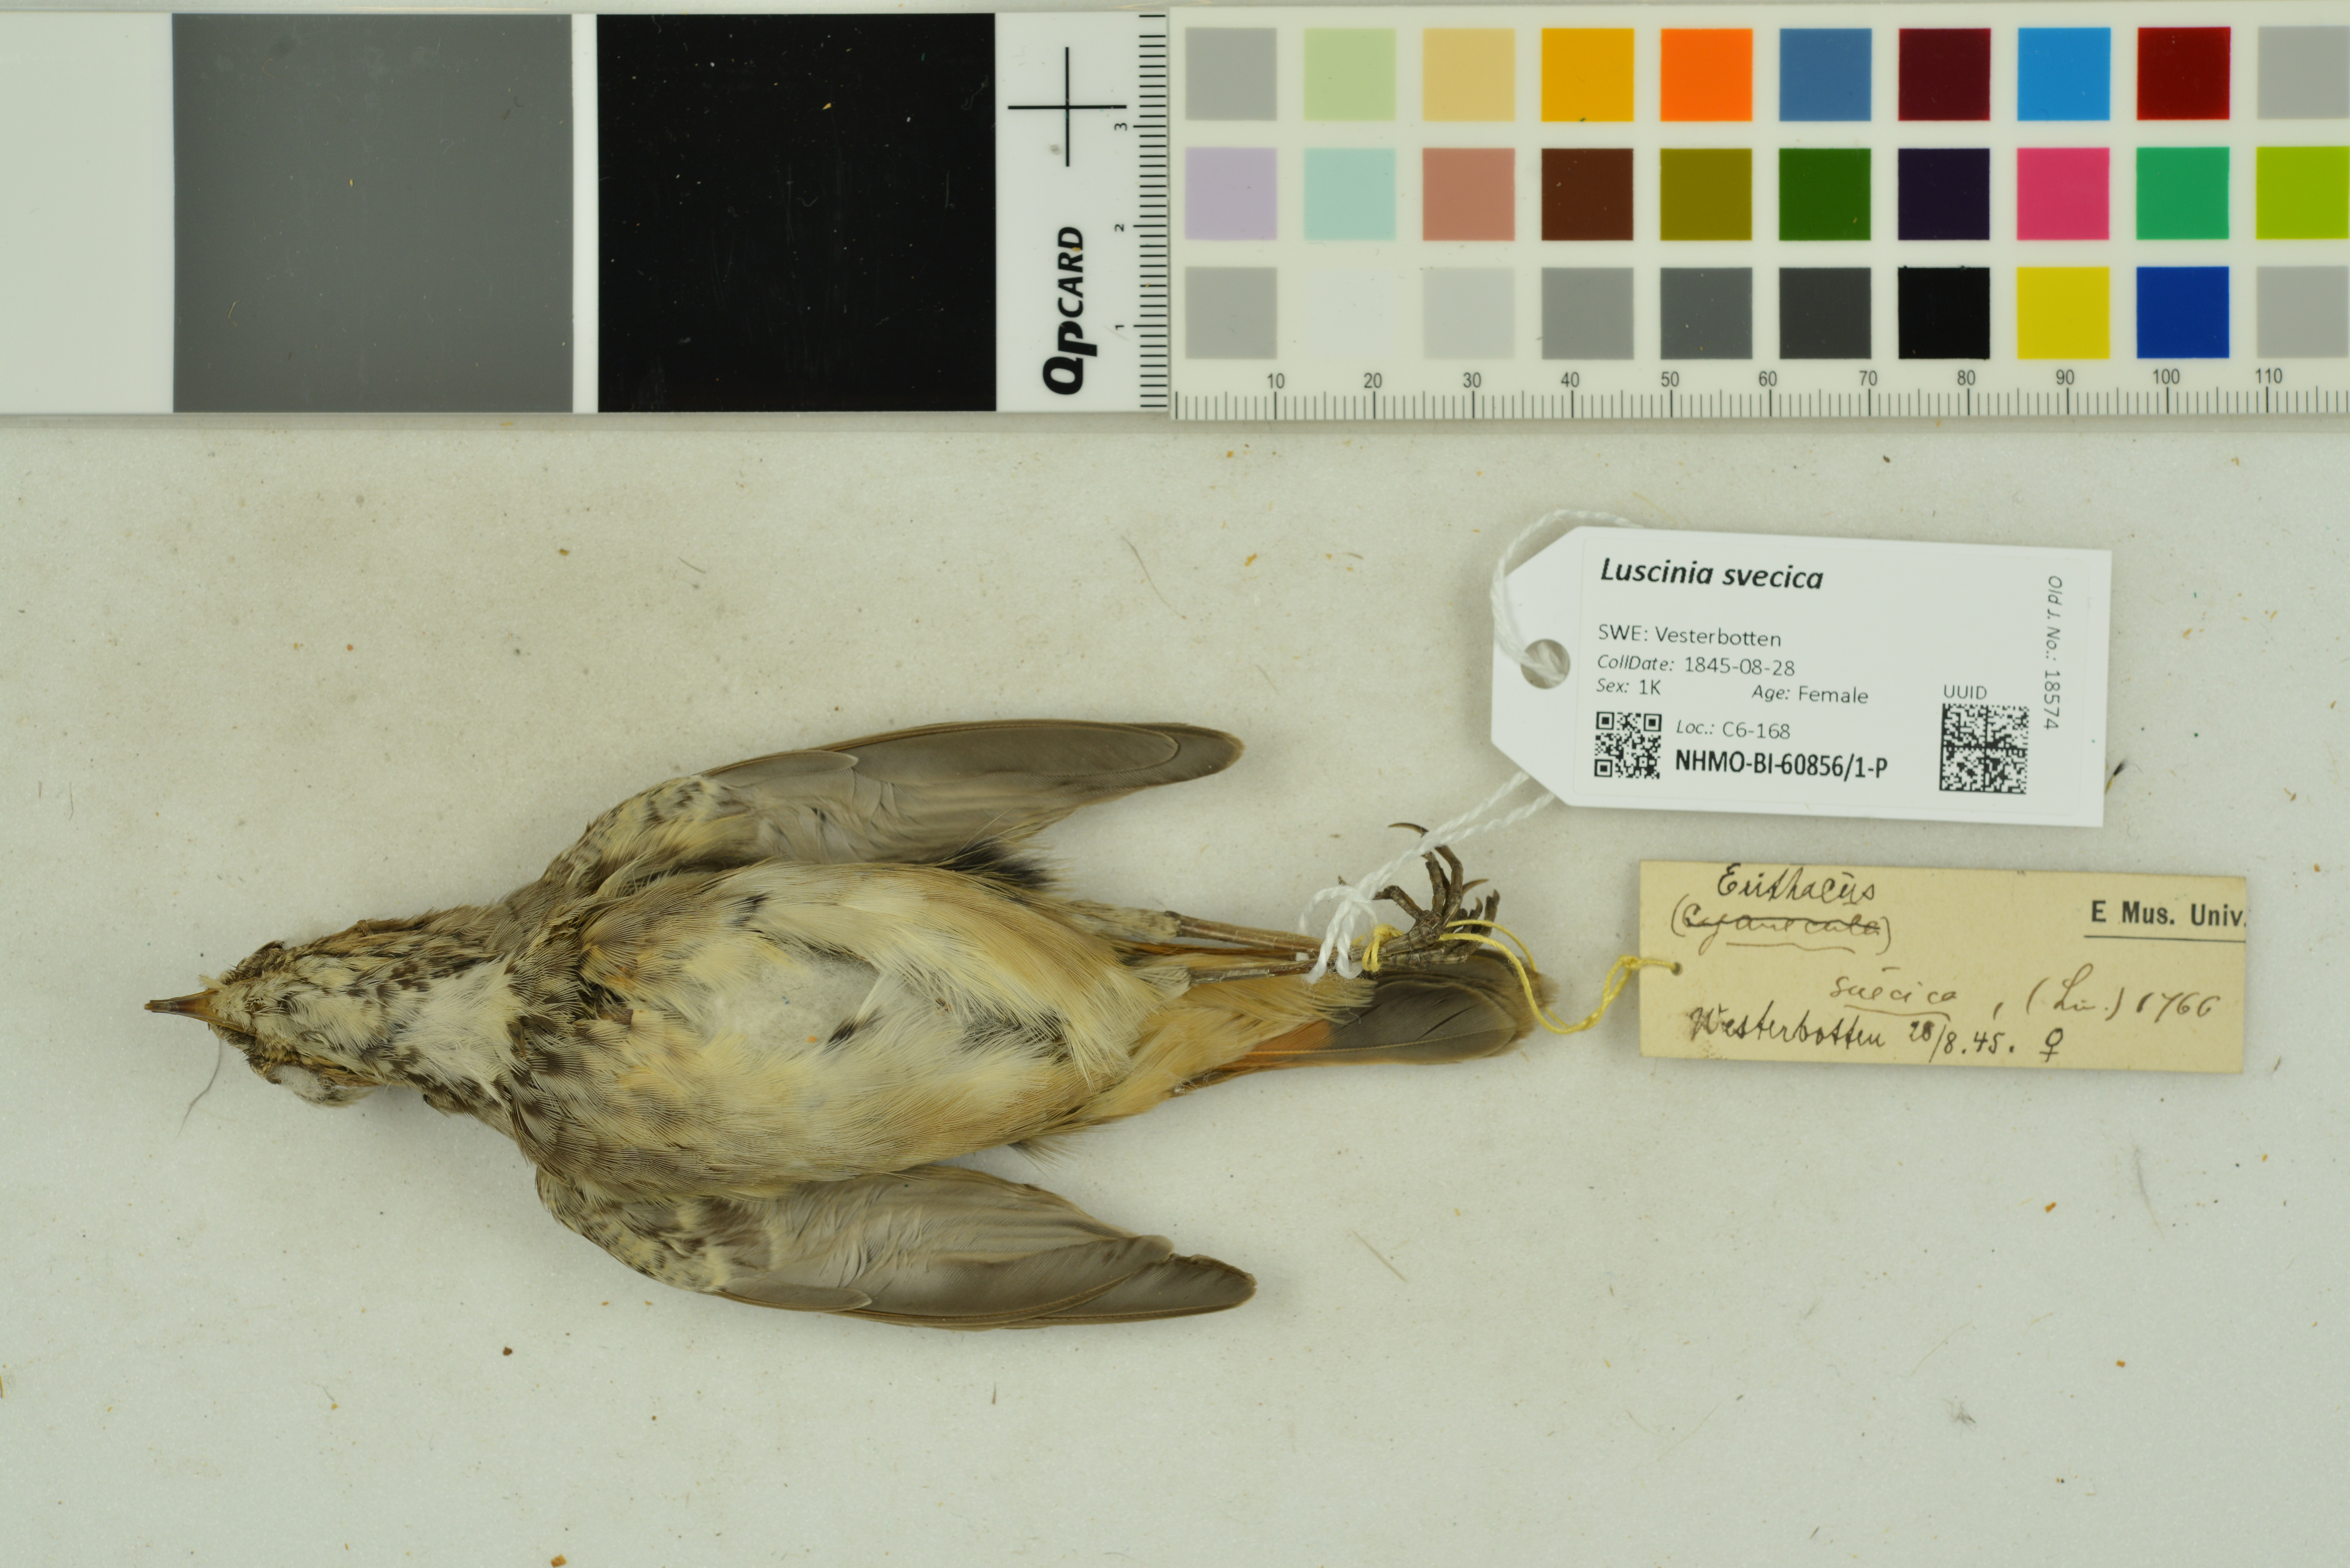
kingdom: Animalia
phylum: Chordata
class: Aves
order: Passeriformes
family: Muscicapidae
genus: Luscinia
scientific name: Luscinia svecica
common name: Bluethroat
